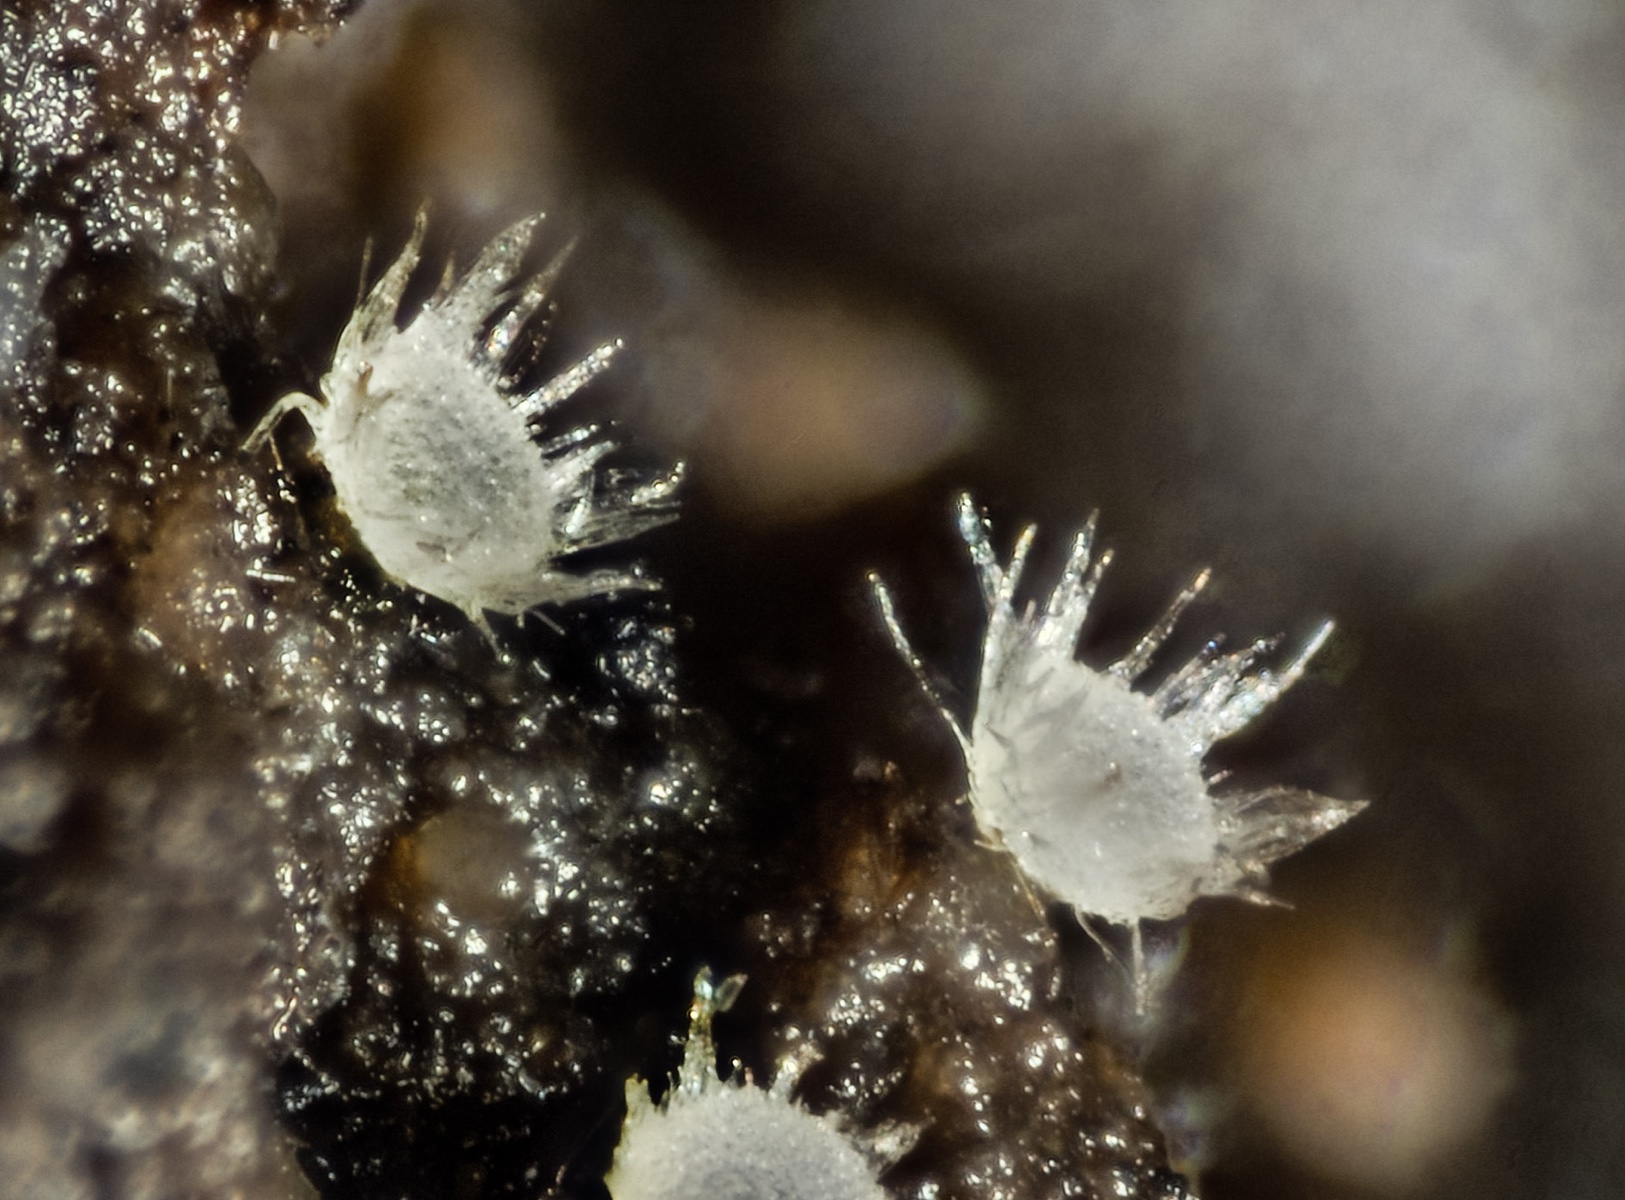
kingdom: Fungi
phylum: Ascomycota
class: Leotiomycetes
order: Helotiales
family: Hyaloscyphaceae
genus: Echinula
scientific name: Echinula resinicola
